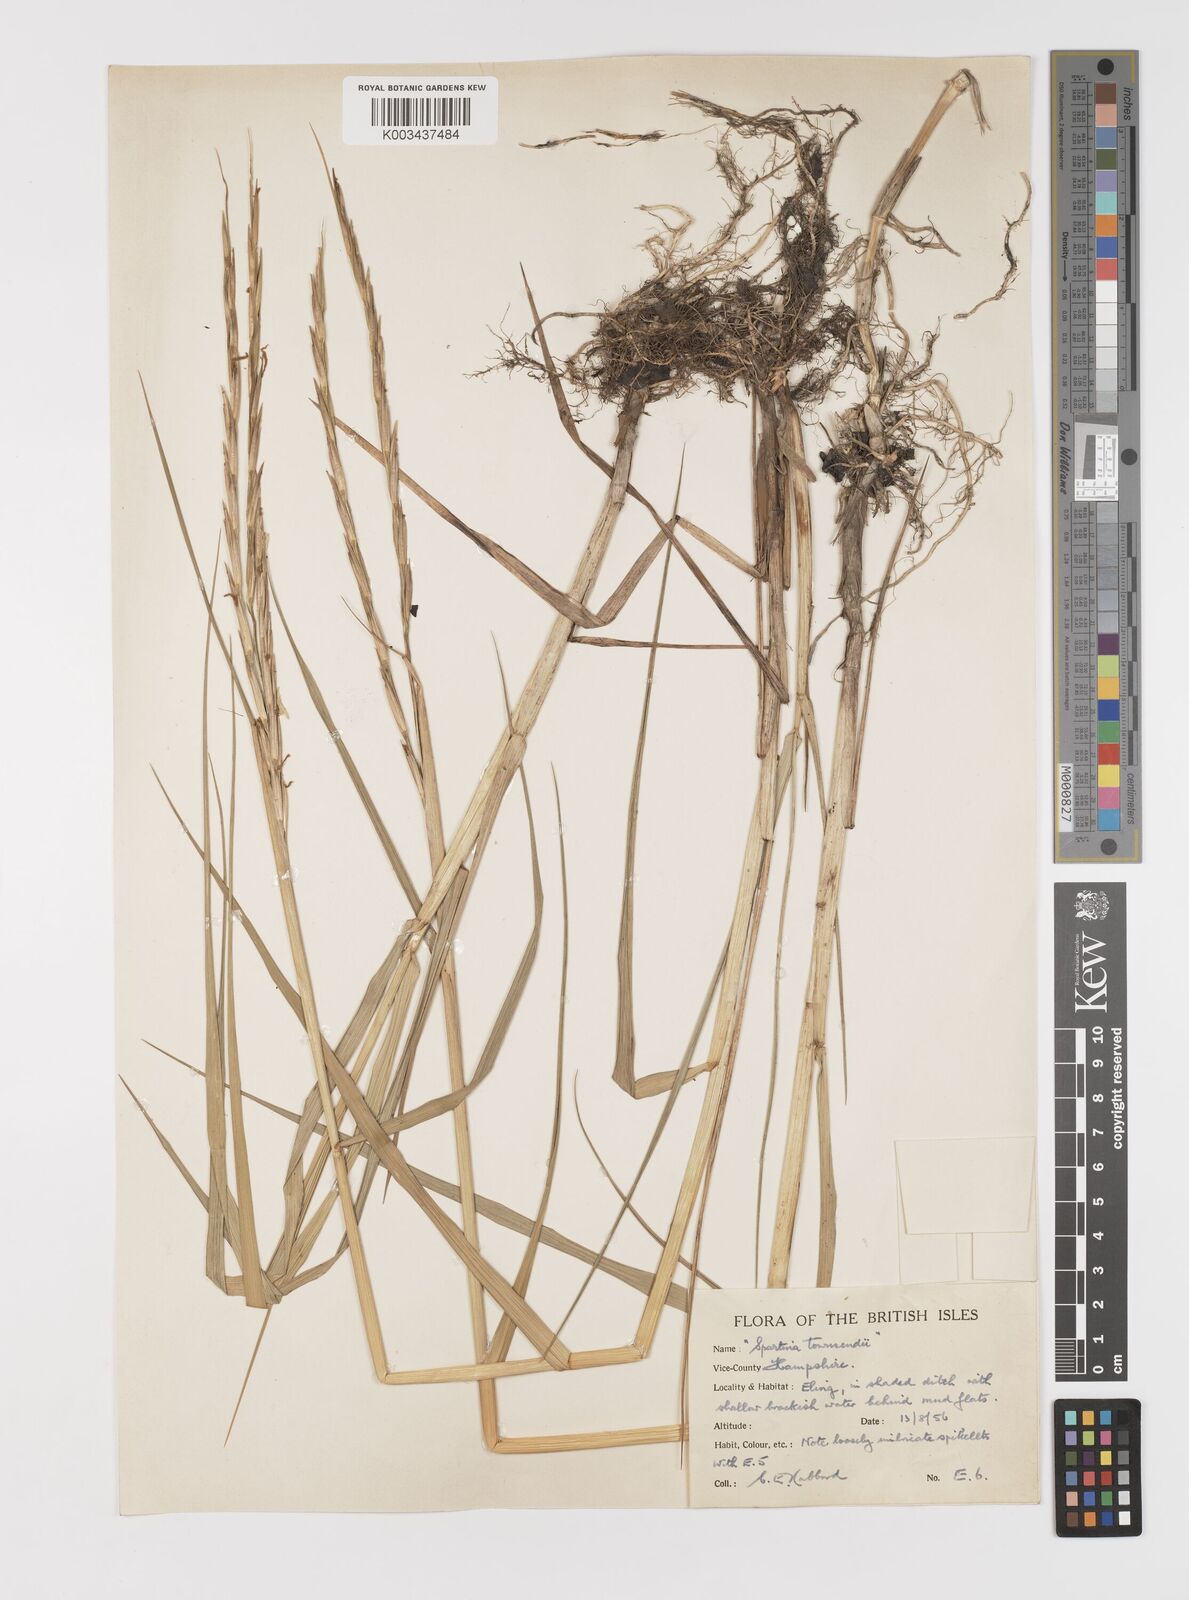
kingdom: Plantae
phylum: Tracheophyta
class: Liliopsida
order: Poales
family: Poaceae
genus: Sporobolus
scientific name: Sporobolus anglicus
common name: English cordgrass
